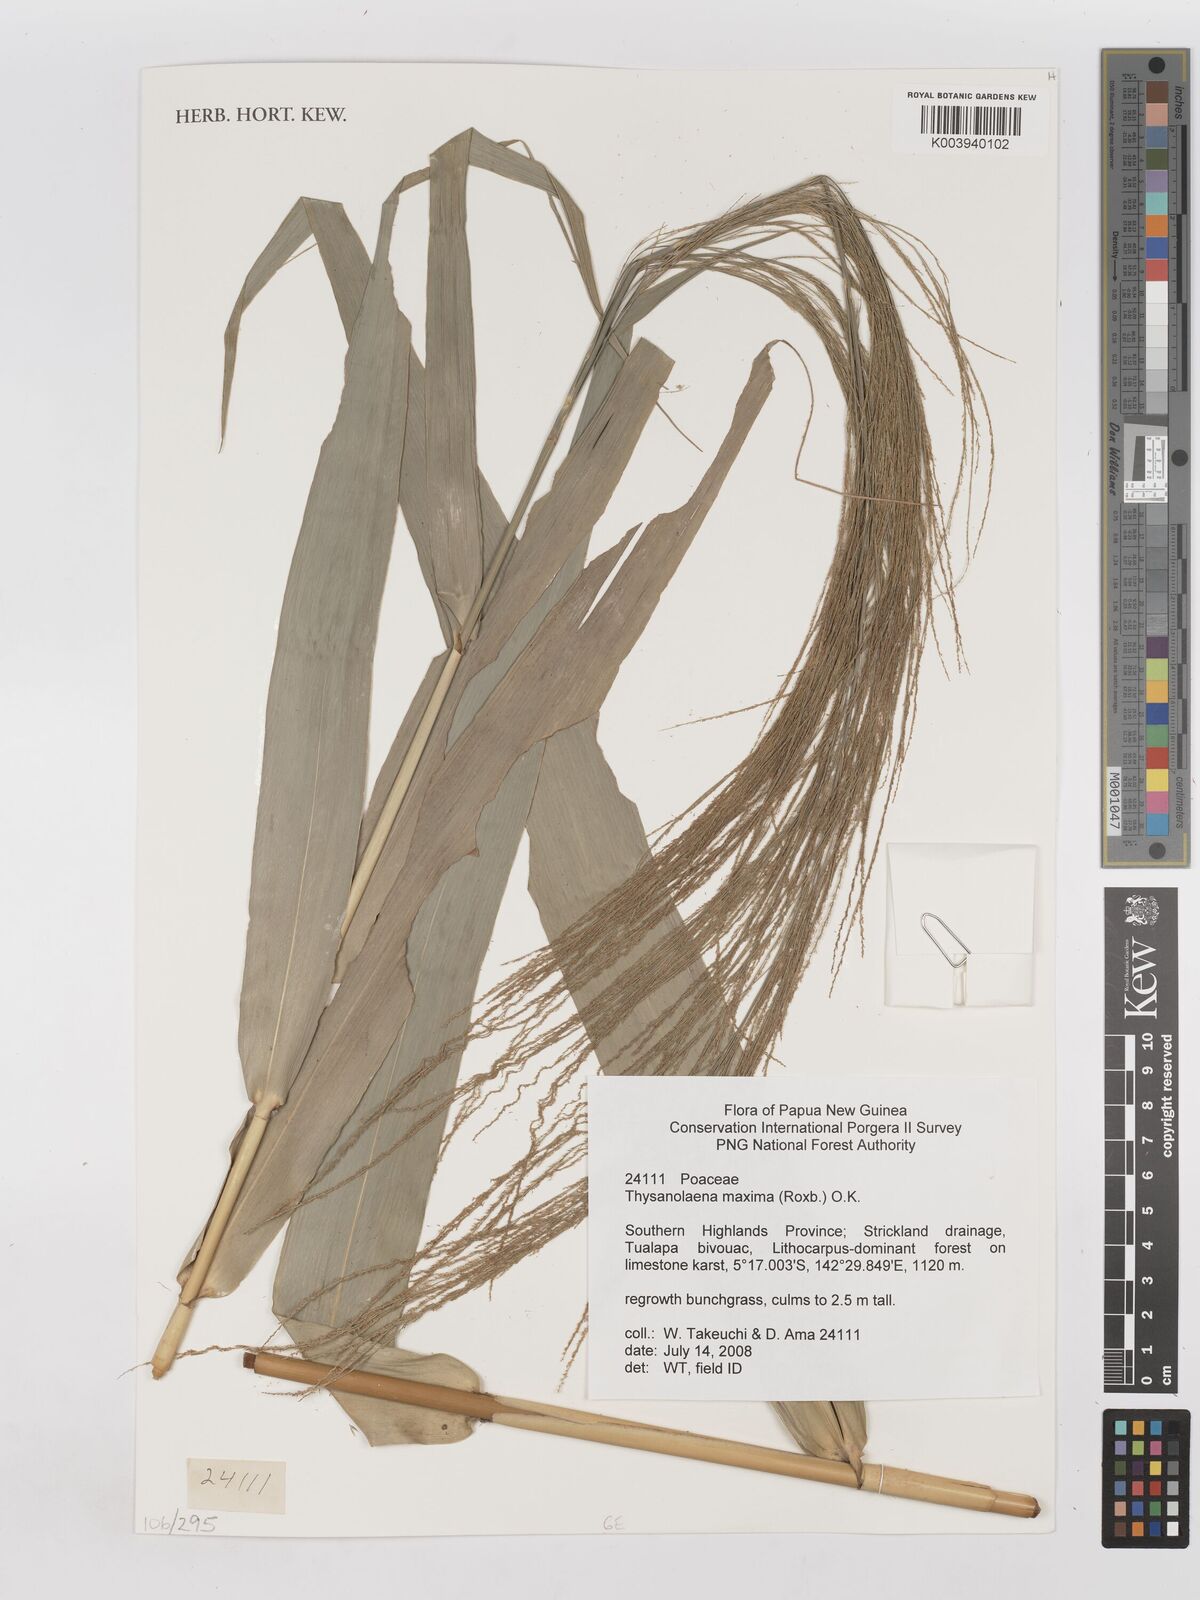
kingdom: Plantae
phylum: Tracheophyta
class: Liliopsida
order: Poales
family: Poaceae
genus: Thysanolaena
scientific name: Thysanolaena latifolia
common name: Tiger grass
